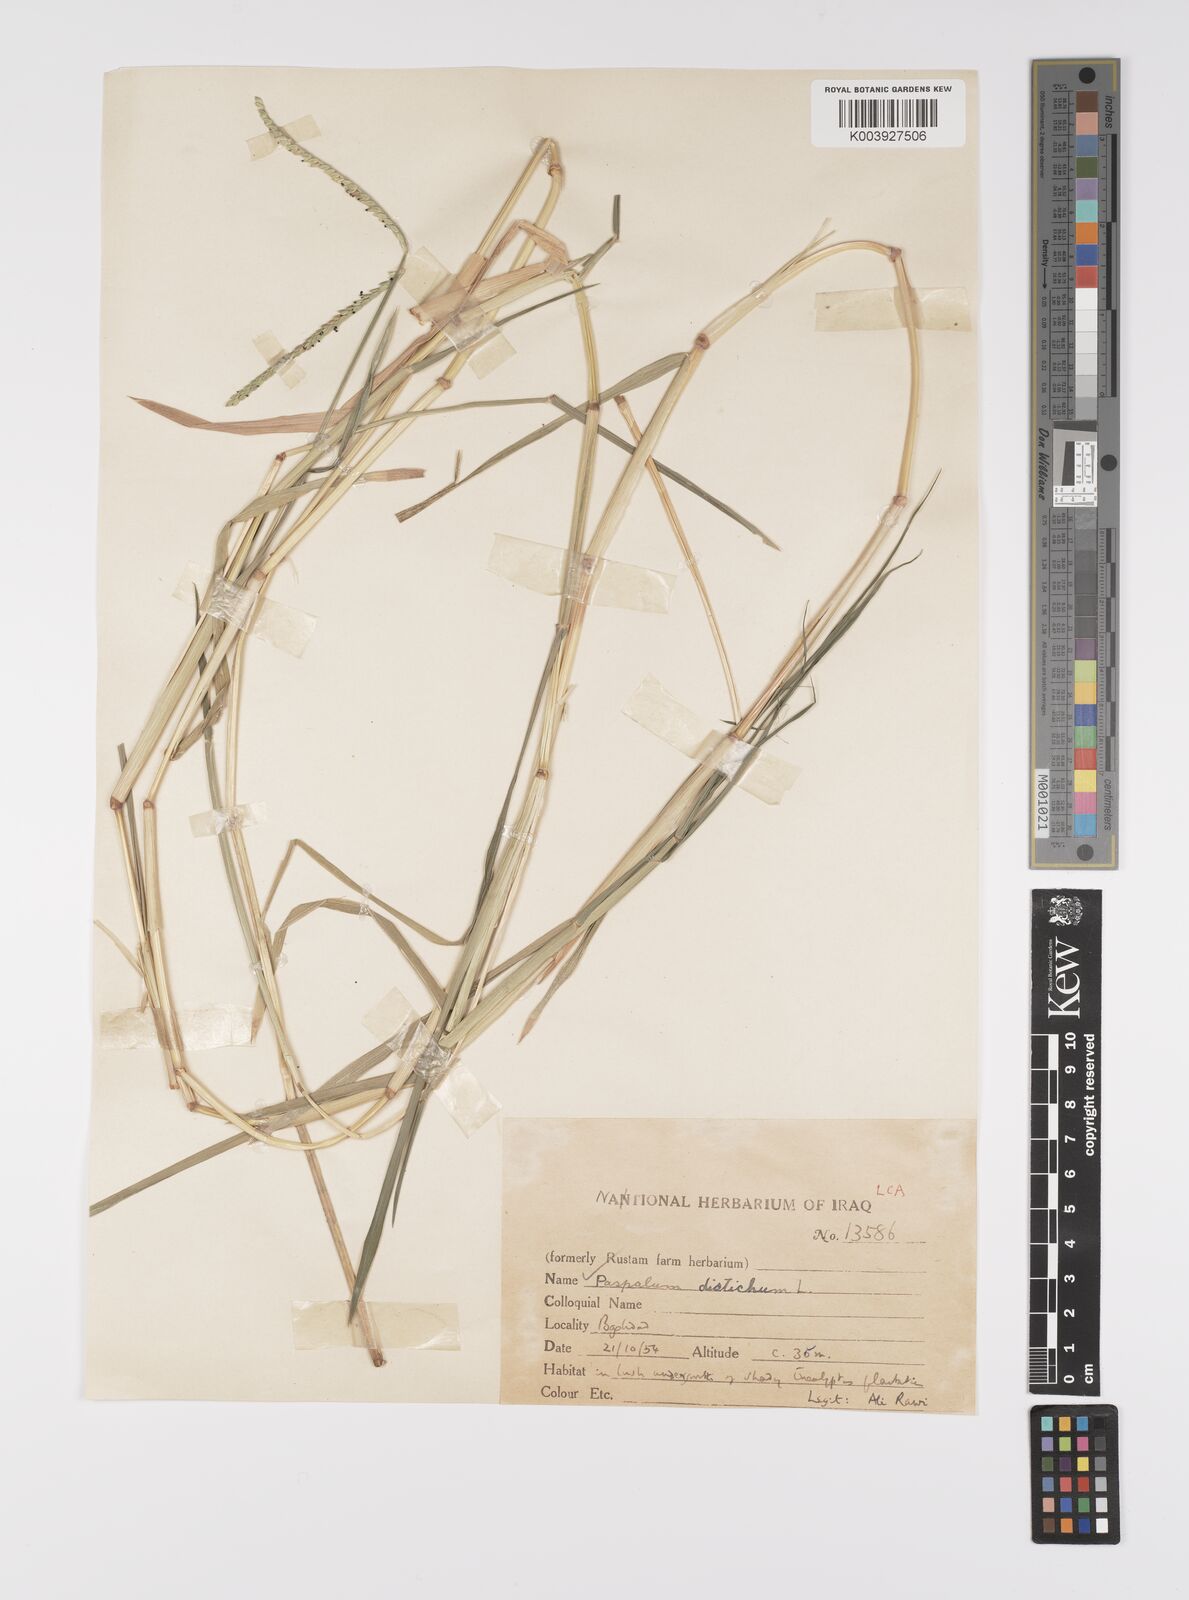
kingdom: Plantae
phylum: Tracheophyta
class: Liliopsida
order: Poales
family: Poaceae
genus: Paspalum
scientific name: Paspalum distichum
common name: Knotgrass
